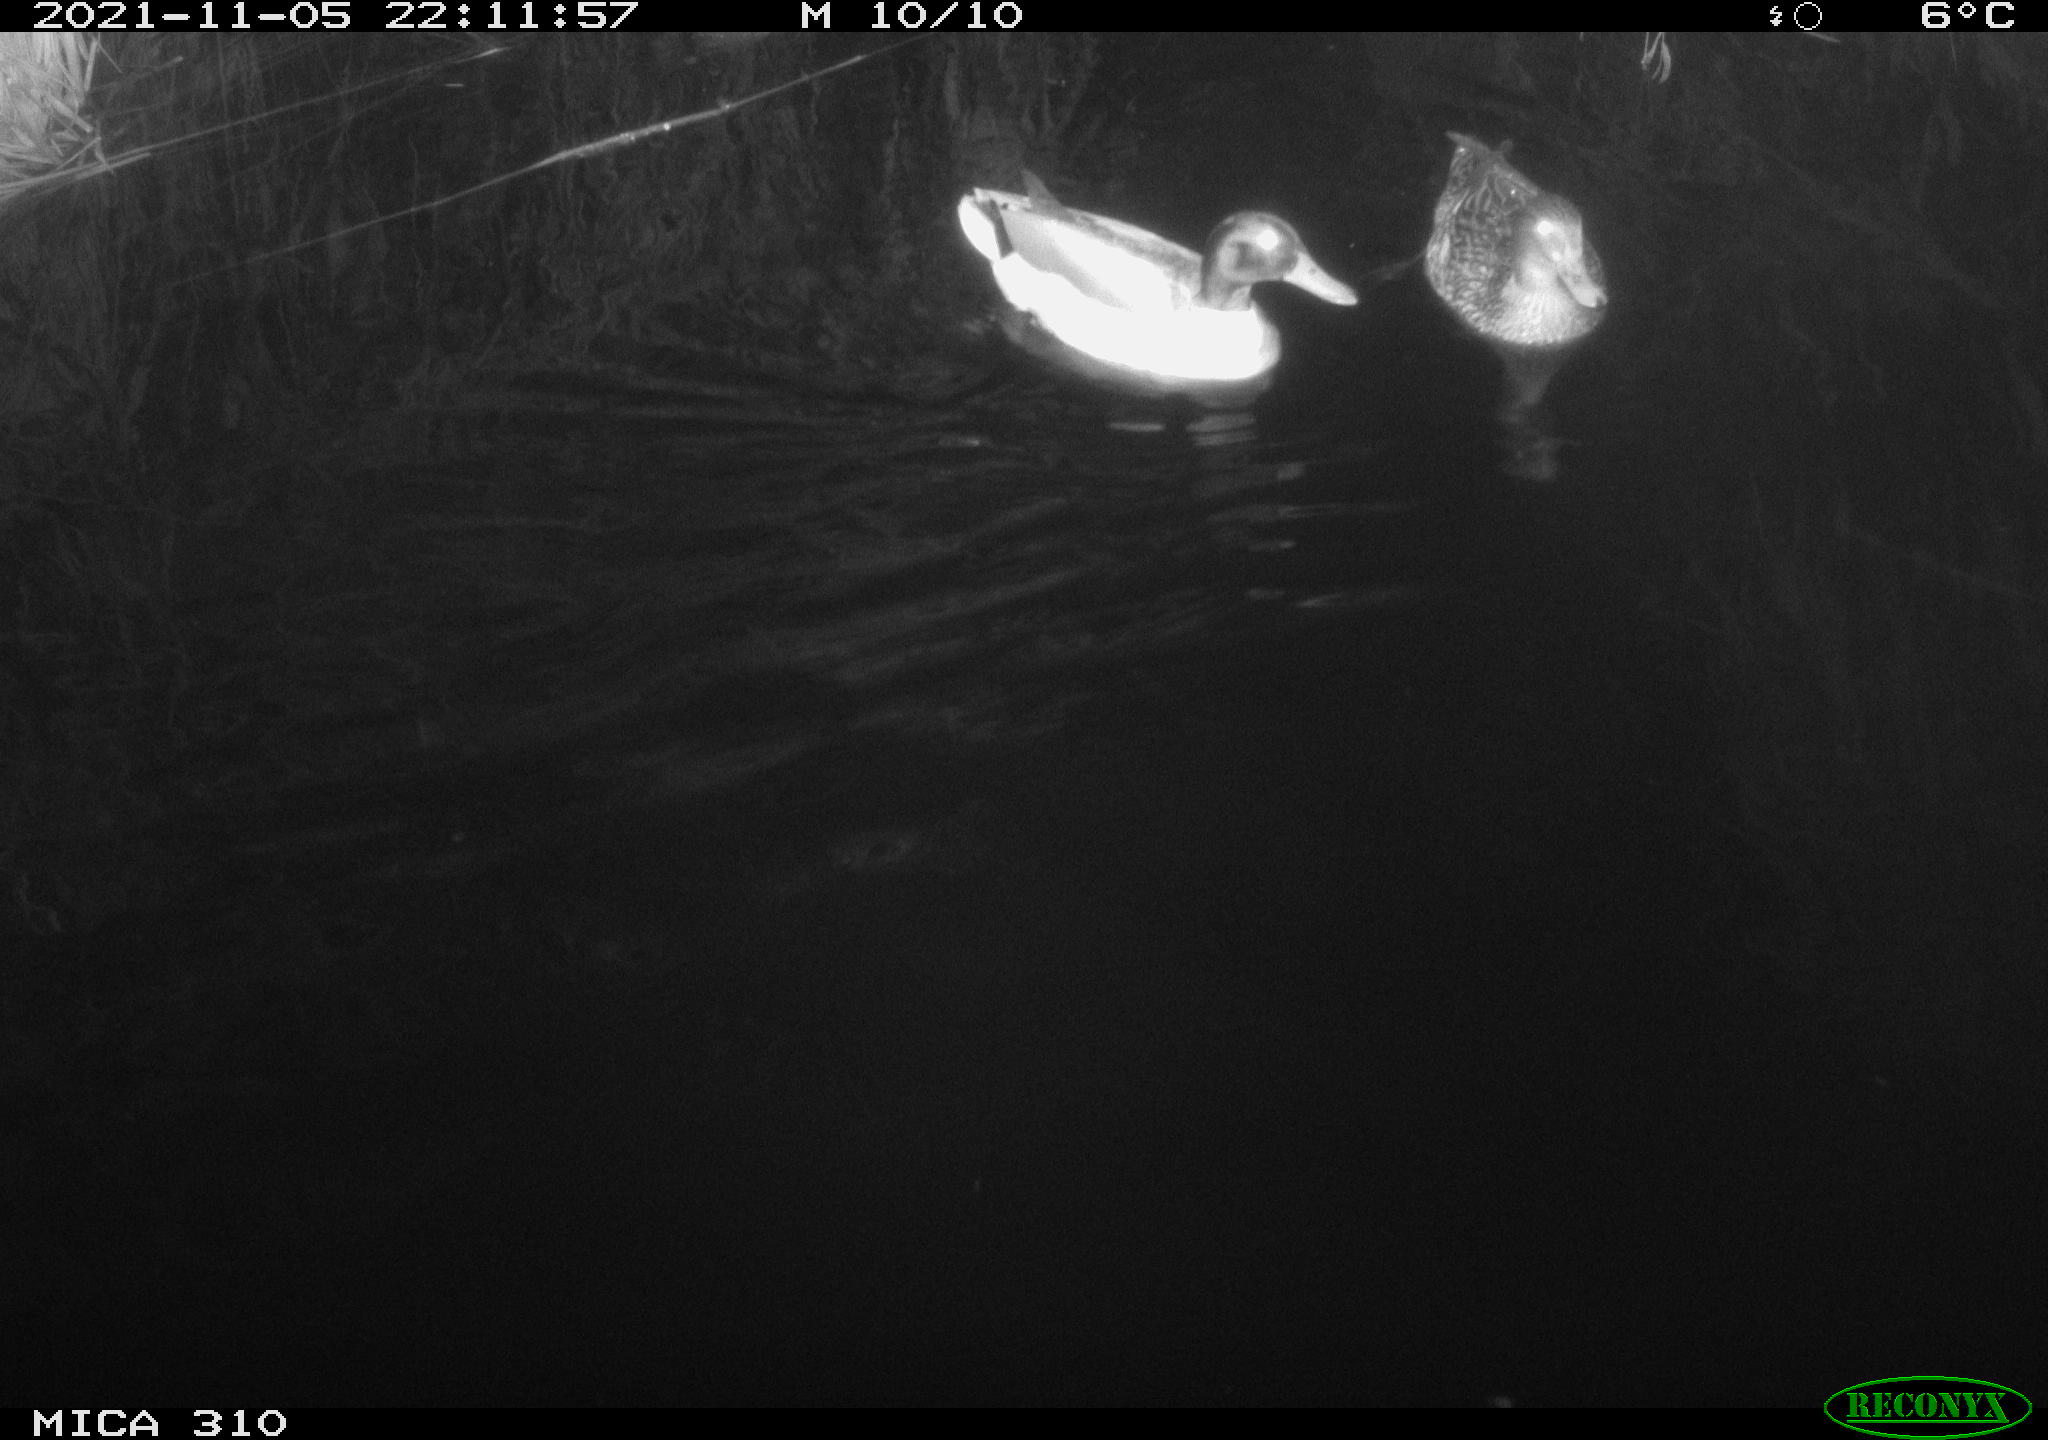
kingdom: Animalia
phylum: Chordata
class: Aves
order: Anseriformes
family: Anatidae
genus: Anas
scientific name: Anas platyrhynchos
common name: Mallard
